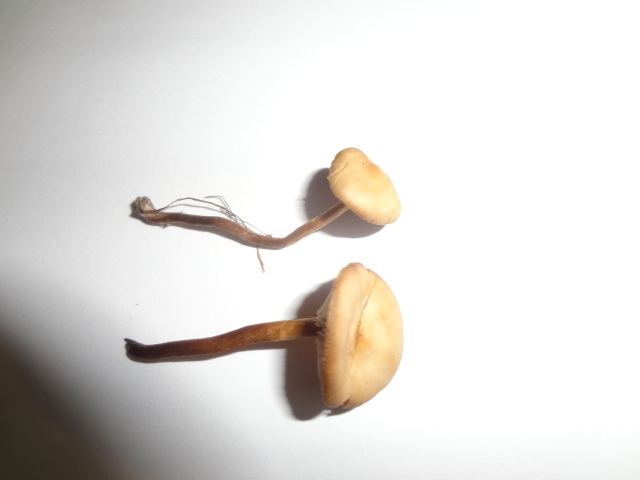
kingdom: Fungi
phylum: Basidiomycota
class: Agaricomycetes
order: Agaricales
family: Strophariaceae
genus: Deconica
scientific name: Deconica inquilina
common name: græs-stråhat
